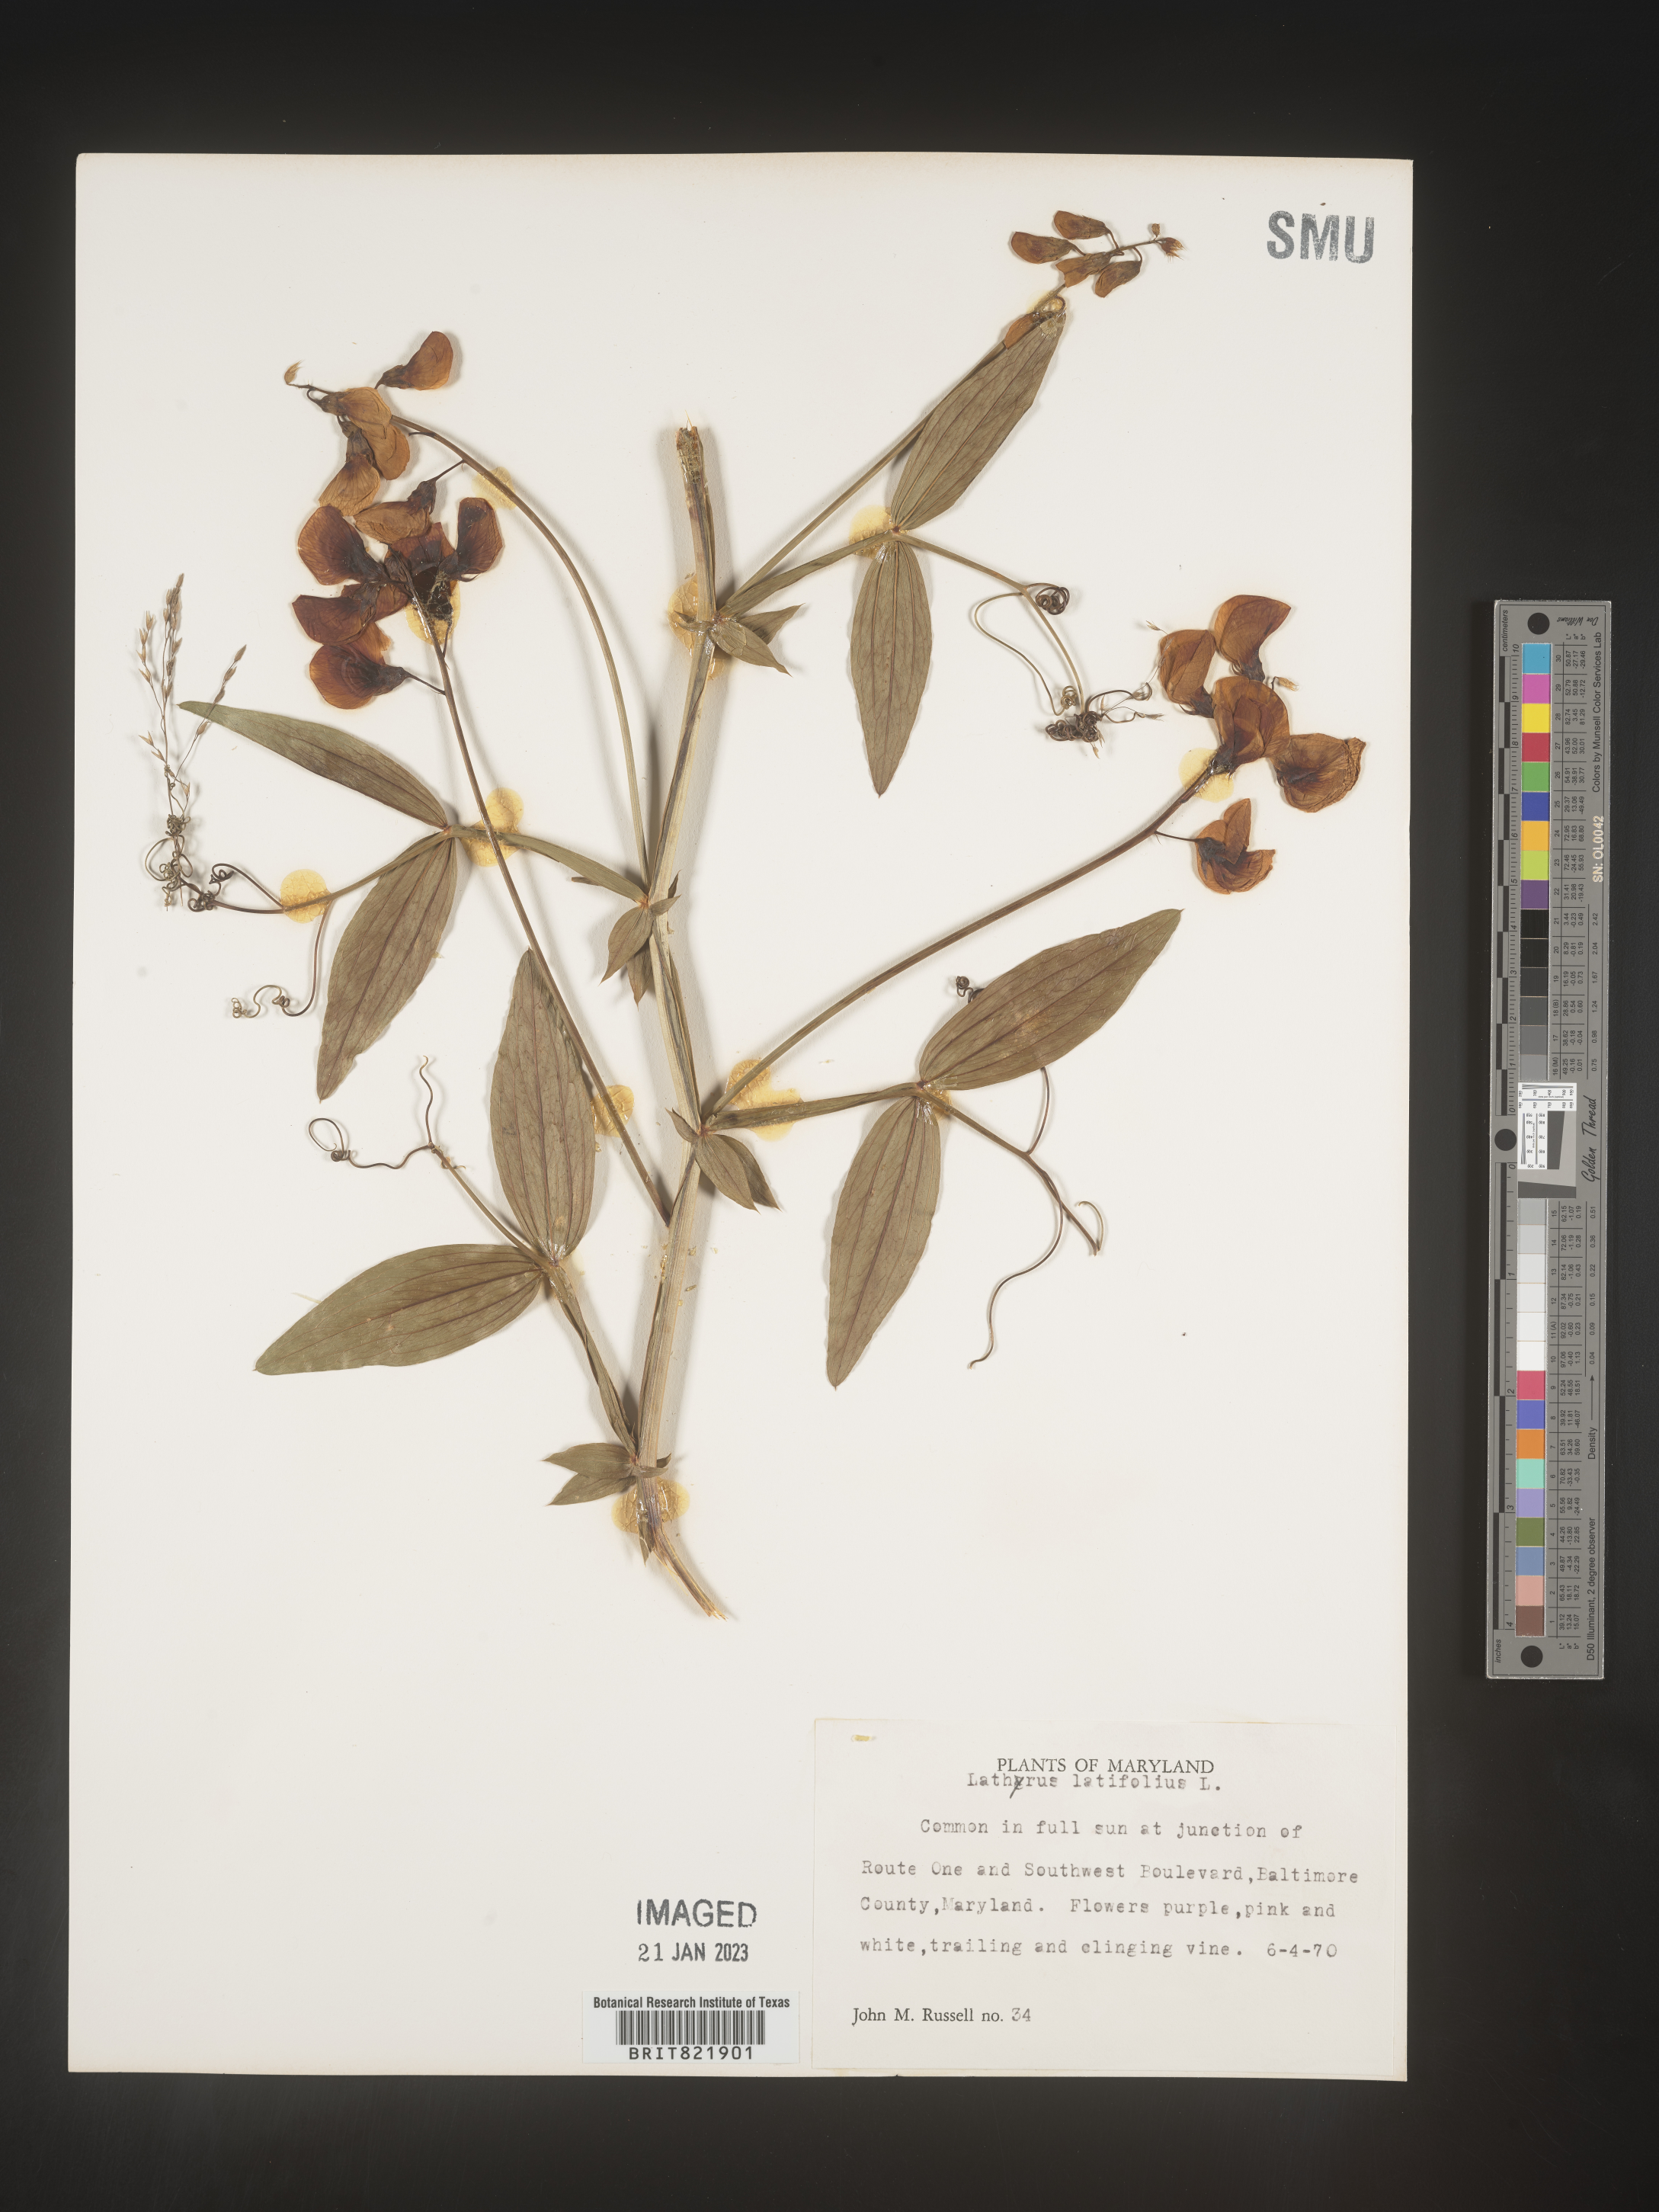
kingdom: Plantae
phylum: Tracheophyta
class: Magnoliopsida
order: Fabales
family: Fabaceae
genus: Lathyrus
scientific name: Lathyrus latifolius
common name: Perennial pea
